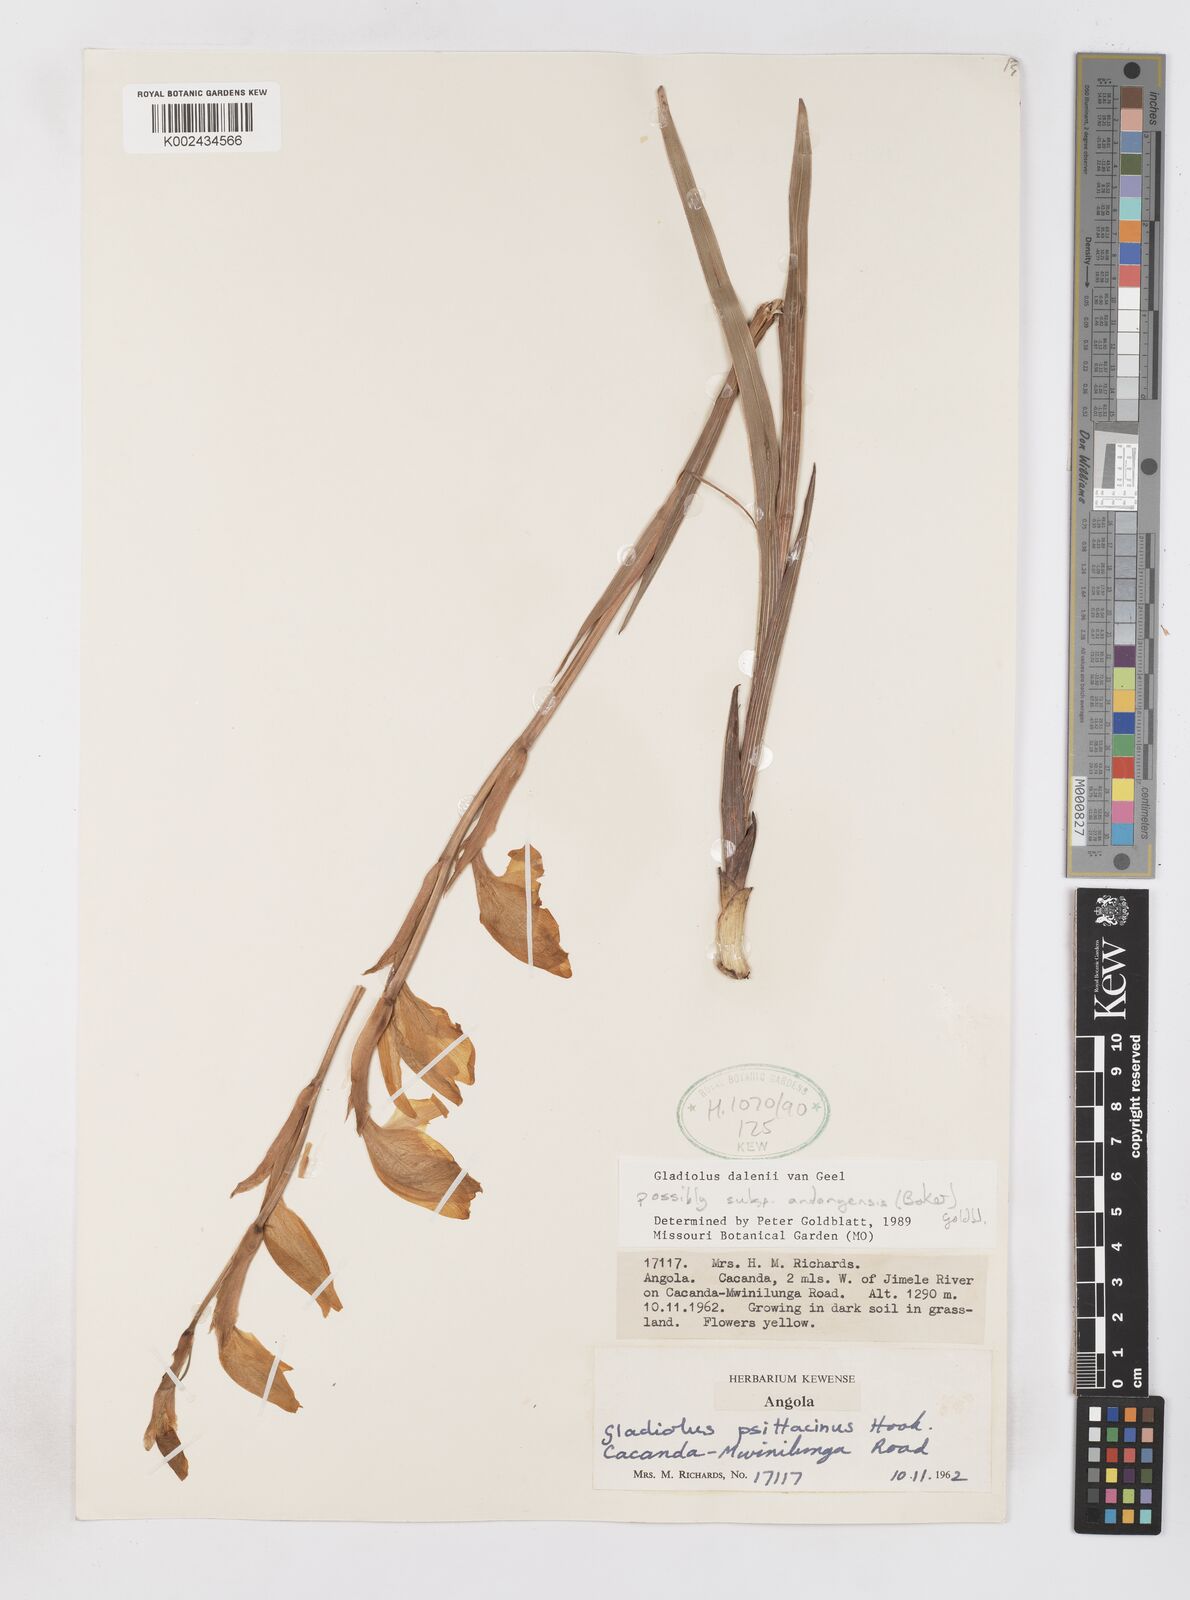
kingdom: Plantae
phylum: Tracheophyta
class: Liliopsida
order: Asparagales
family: Iridaceae
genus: Gladiolus
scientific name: Gladiolus dalenii
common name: Cornflag
